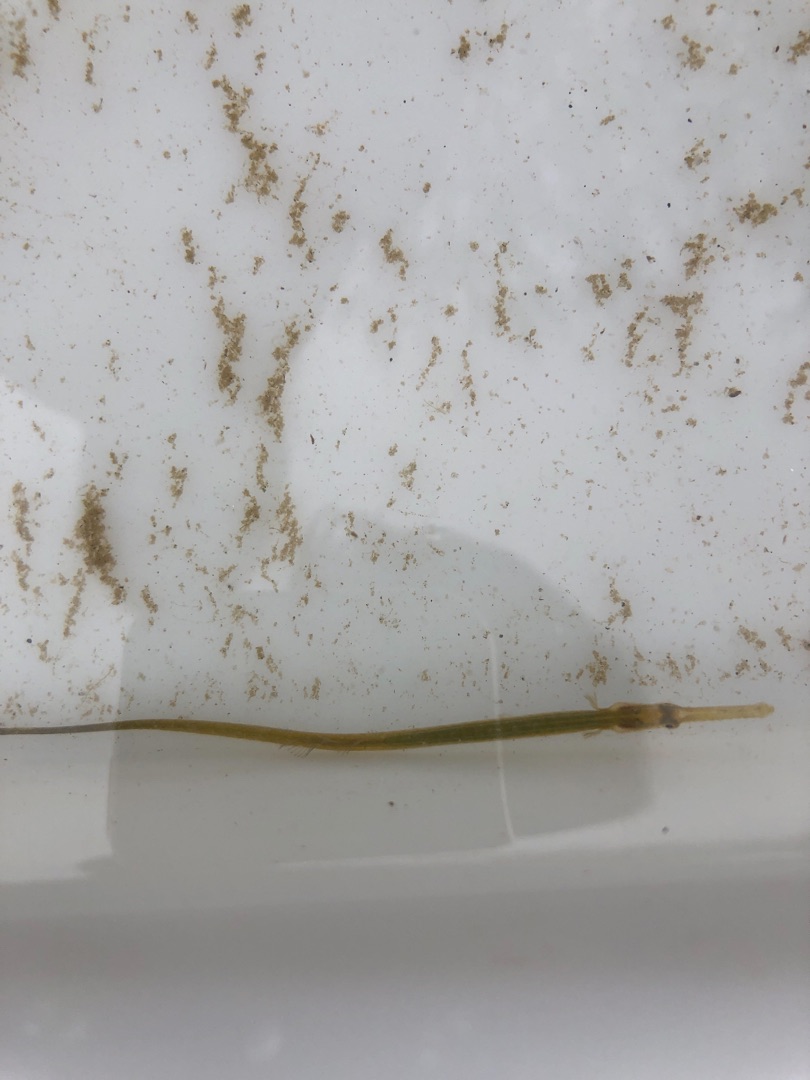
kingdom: Animalia
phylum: Chordata
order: Syngnathiformes
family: Syngnathidae
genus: Syngnathus
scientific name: Syngnathus typhle
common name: Almindelig tangnål
